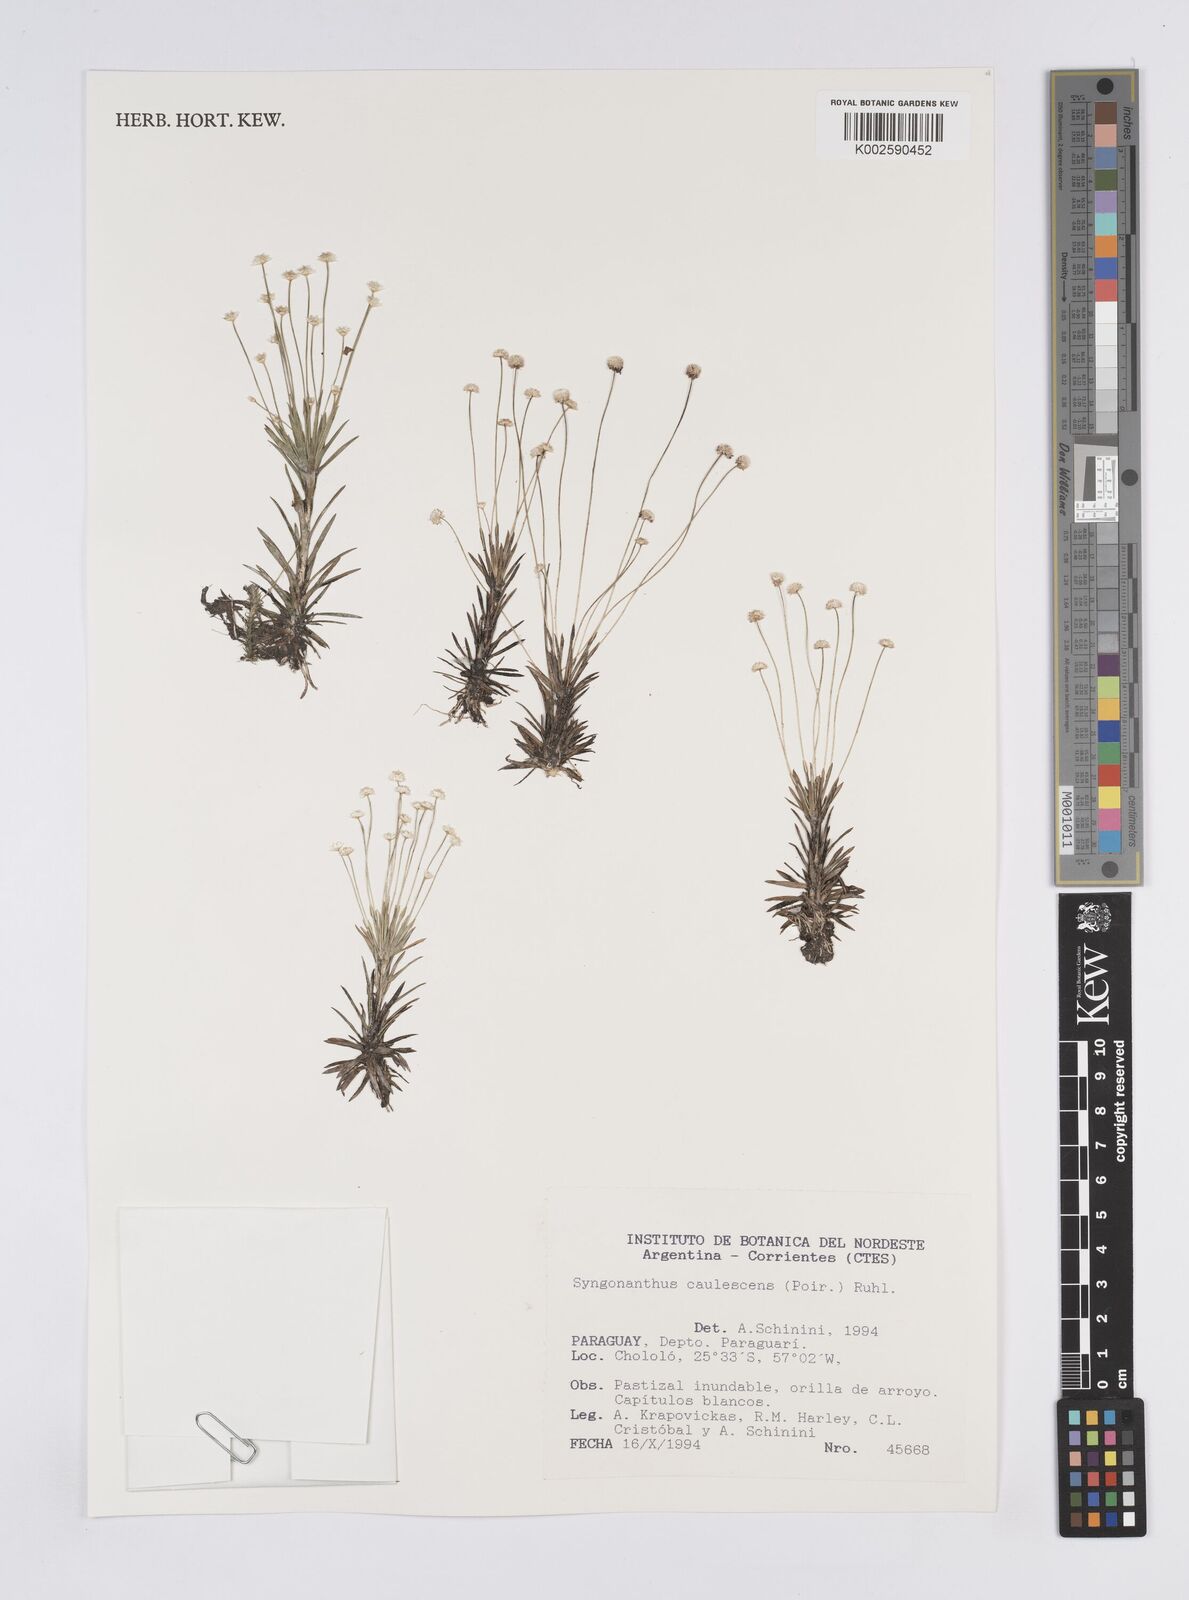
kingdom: Plantae
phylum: Tracheophyta
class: Liliopsida
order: Poales
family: Eriocaulaceae
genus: Syngonanthus
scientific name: Syngonanthus caulescens
